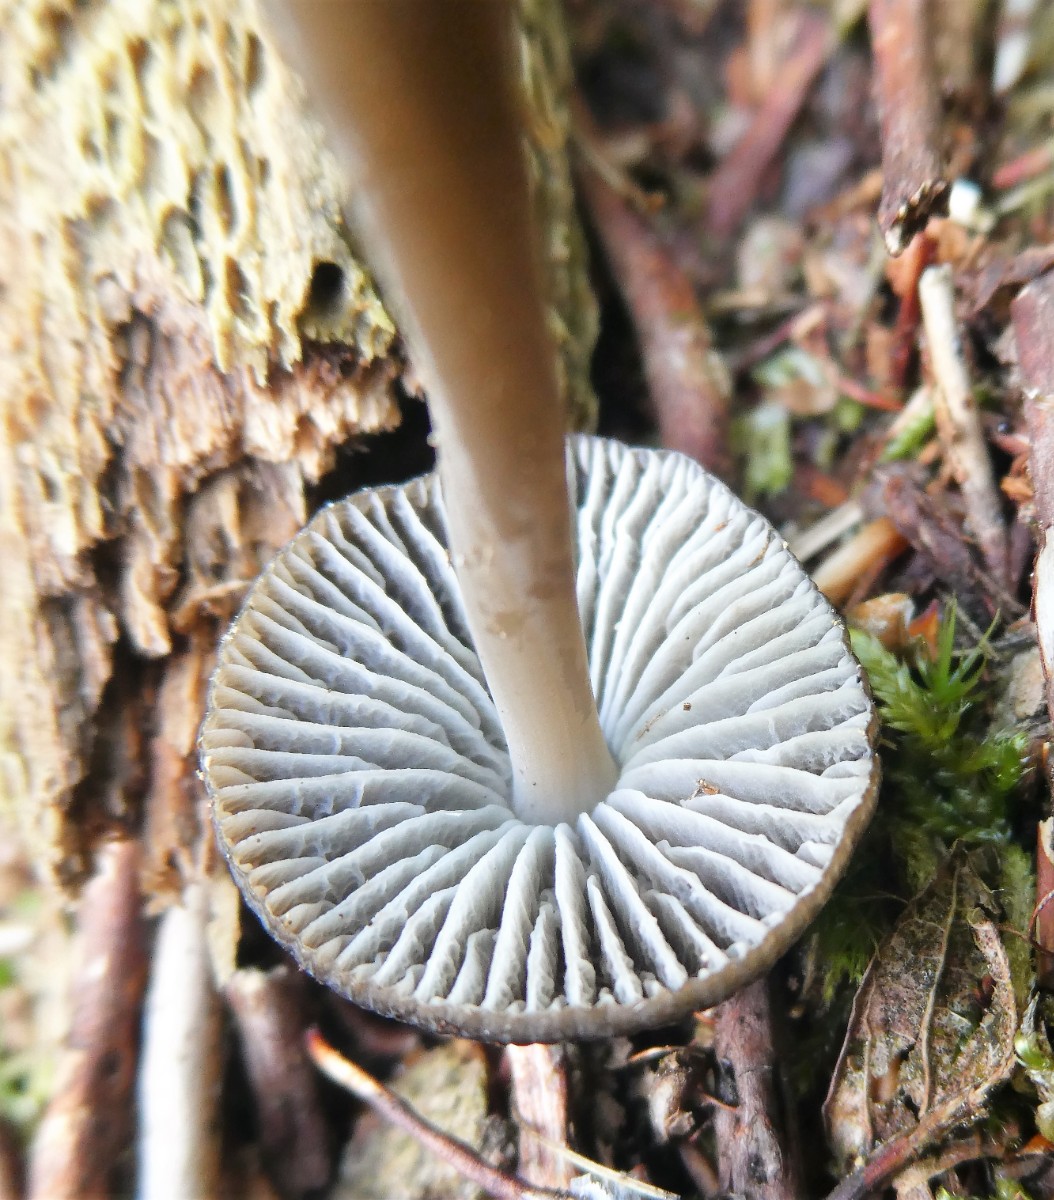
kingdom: Fungi
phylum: Basidiomycota
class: Agaricomycetes
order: Agaricales
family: Mycenaceae
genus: Mycena
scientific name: Mycena megaspora
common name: brusk-huesvamp
